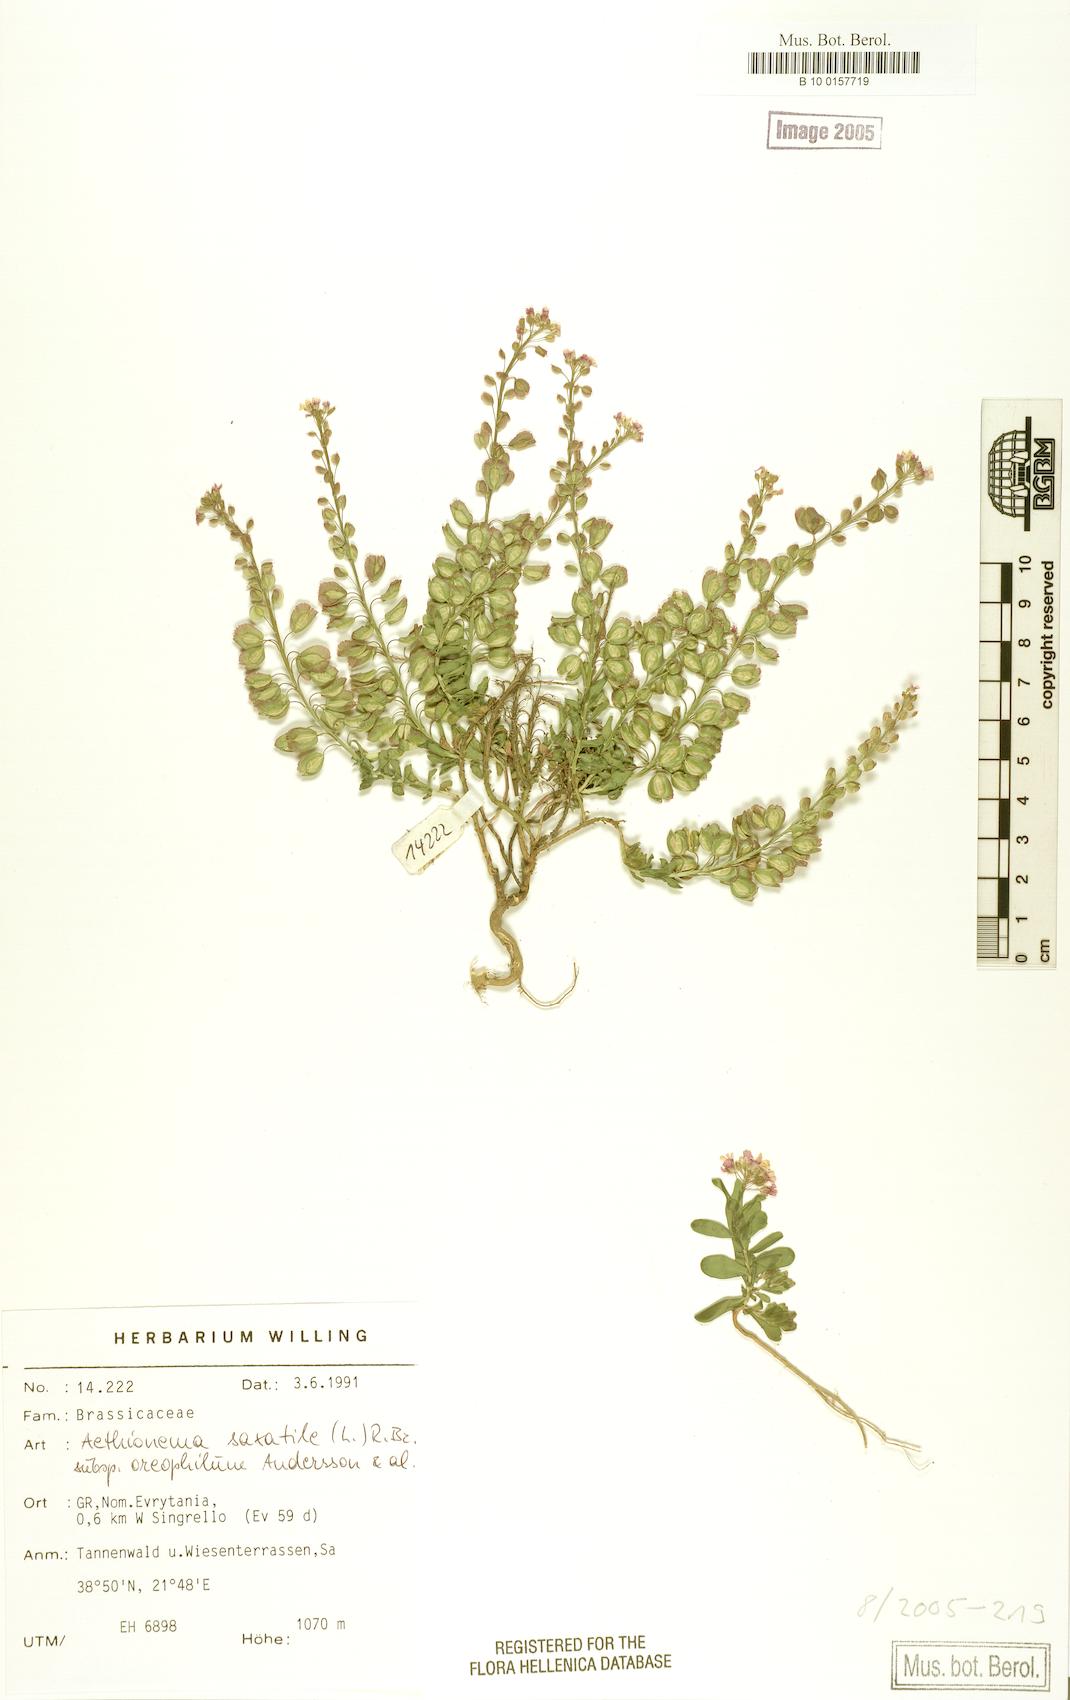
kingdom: Plantae
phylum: Tracheophyta
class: Magnoliopsida
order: Brassicales
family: Brassicaceae
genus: Aethionema
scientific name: Aethionema saxatile
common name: Burnt candytuft
